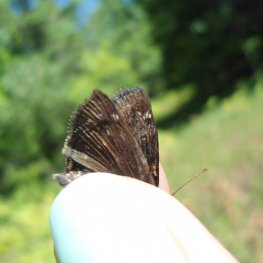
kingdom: Animalia
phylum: Arthropoda
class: Insecta
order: Lepidoptera
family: Hesperiidae
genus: Gesta
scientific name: Gesta
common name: Columbine Duskywing
